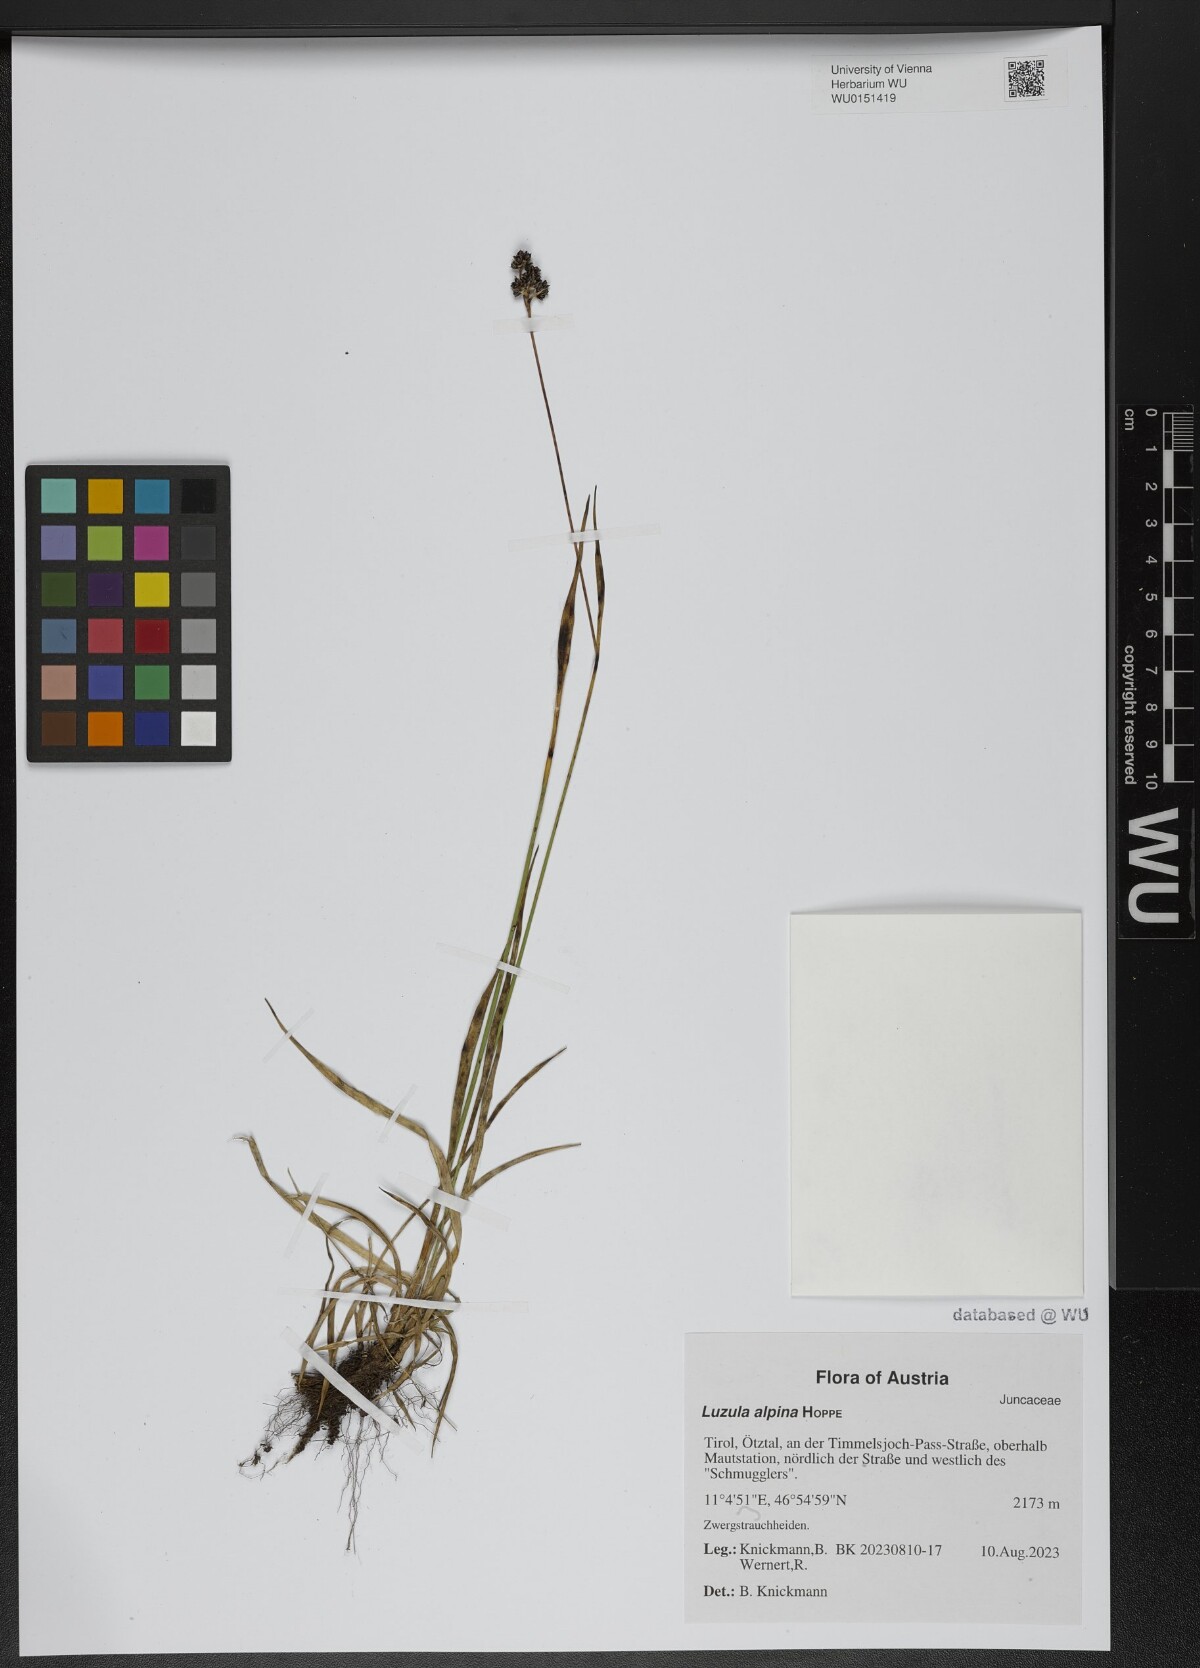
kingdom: Plantae
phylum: Tracheophyta
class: Liliopsida
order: Poales
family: Juncaceae
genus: Luzula
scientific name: Luzula alpina
